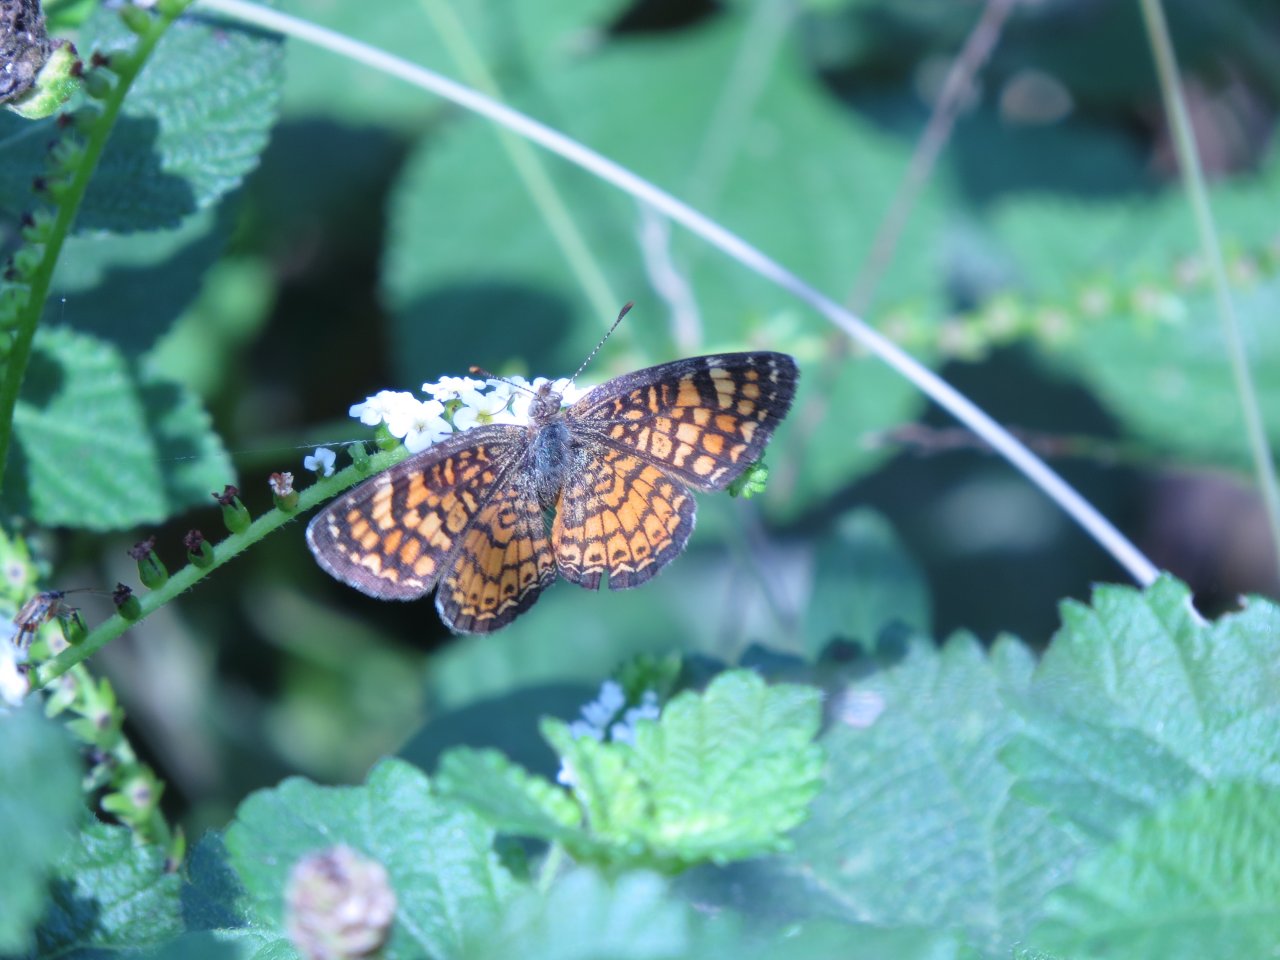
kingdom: Animalia
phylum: Arthropoda
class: Insecta
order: Lepidoptera
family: Nymphalidae
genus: Phyciodes
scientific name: Phyciodes vesta
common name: Vesta Crescent
